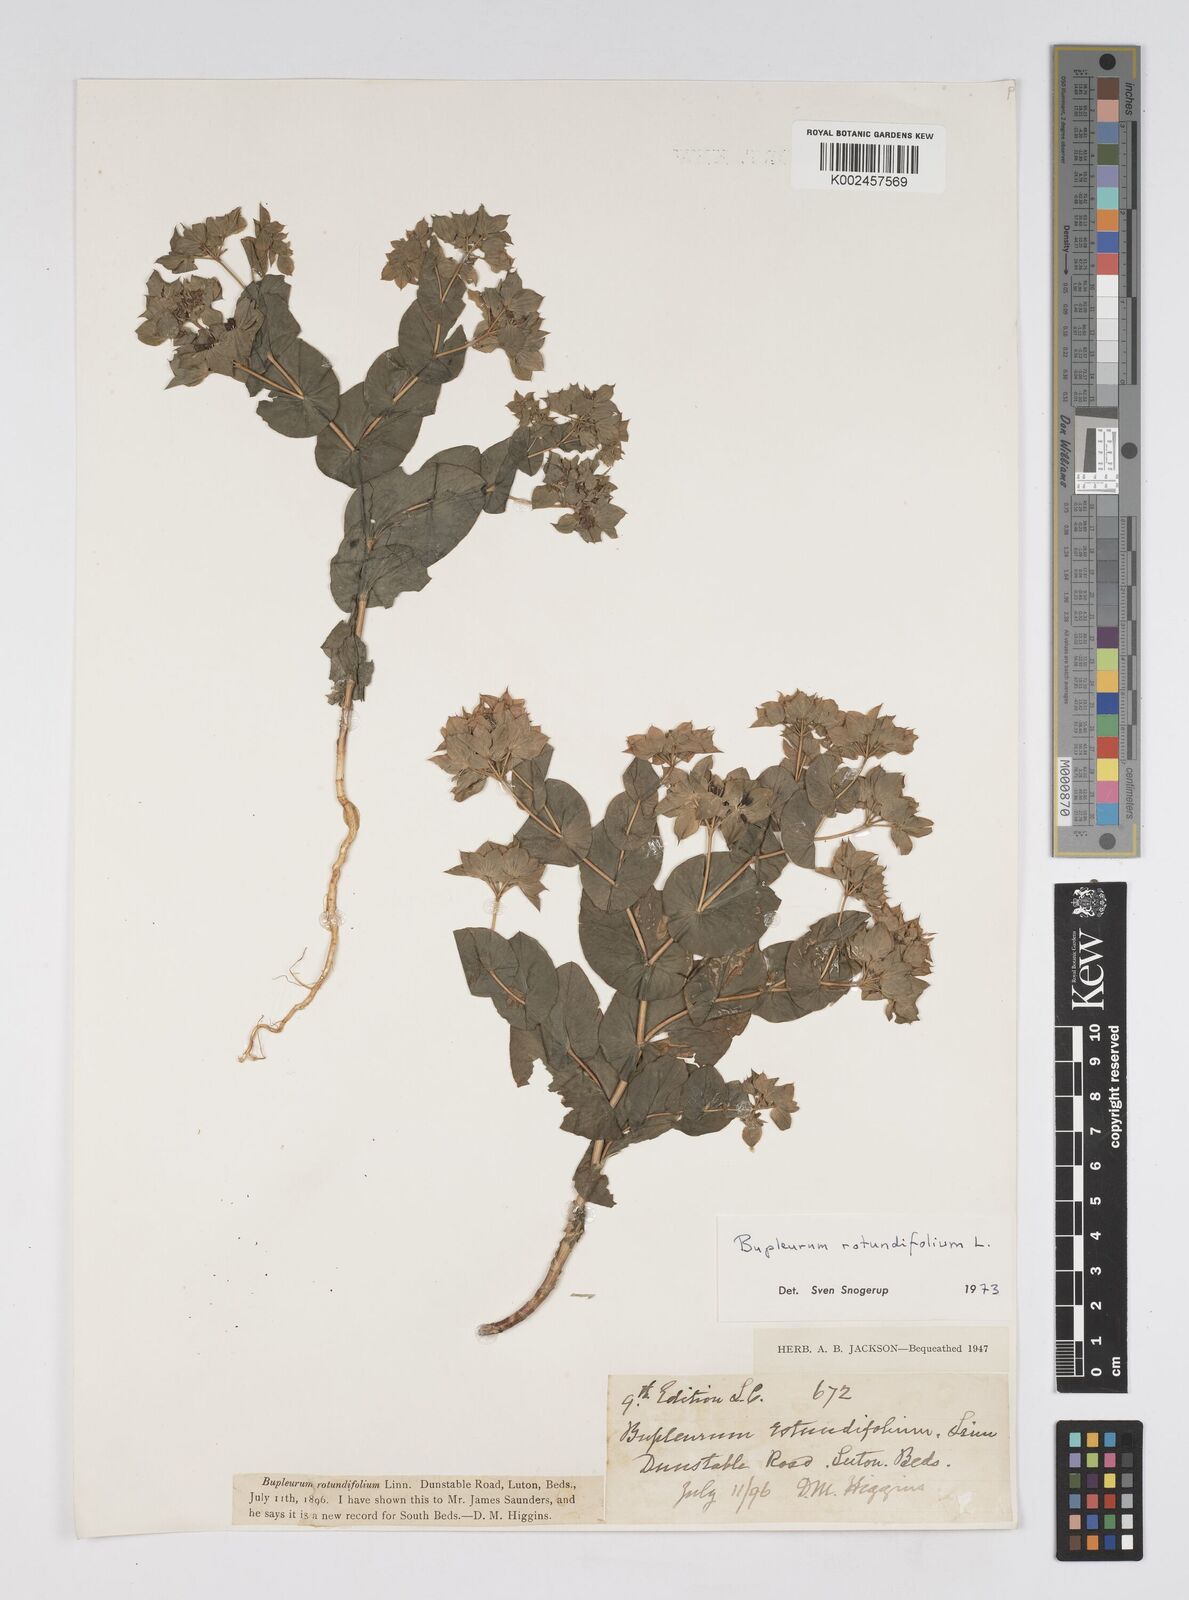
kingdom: Plantae
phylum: Tracheophyta
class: Magnoliopsida
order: Apiales
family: Apiaceae
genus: Bupleurum
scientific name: Bupleurum rotundifolium
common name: Thorow-wax
